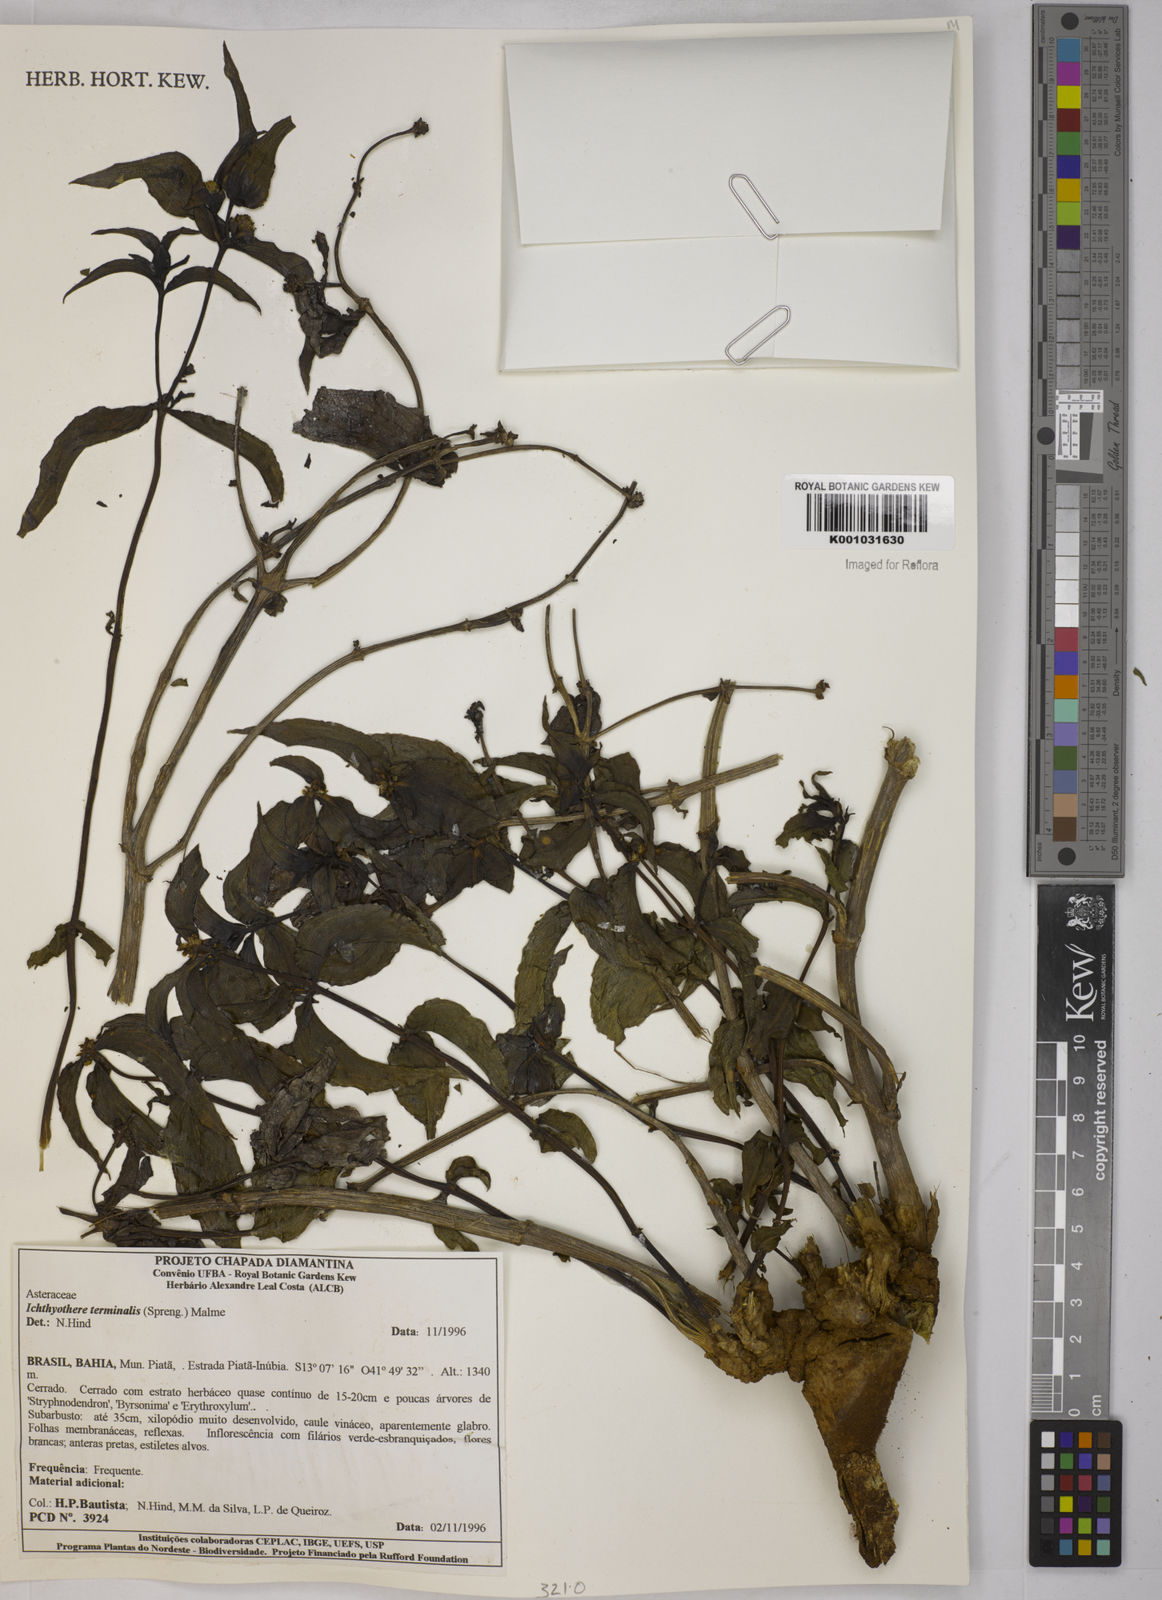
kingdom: Plantae
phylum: Tracheophyta
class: Magnoliopsida
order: Asterales
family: Asteraceae
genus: Ichthyothere
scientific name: Ichthyothere terminalis
